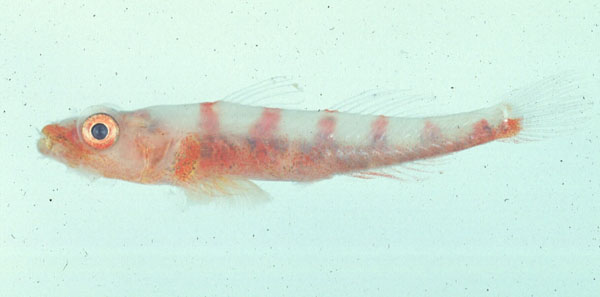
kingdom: Animalia
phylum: Chordata
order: Perciformes
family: Gobiidae
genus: Bryaninops
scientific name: Bryaninops amplus
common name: Large whip goby
